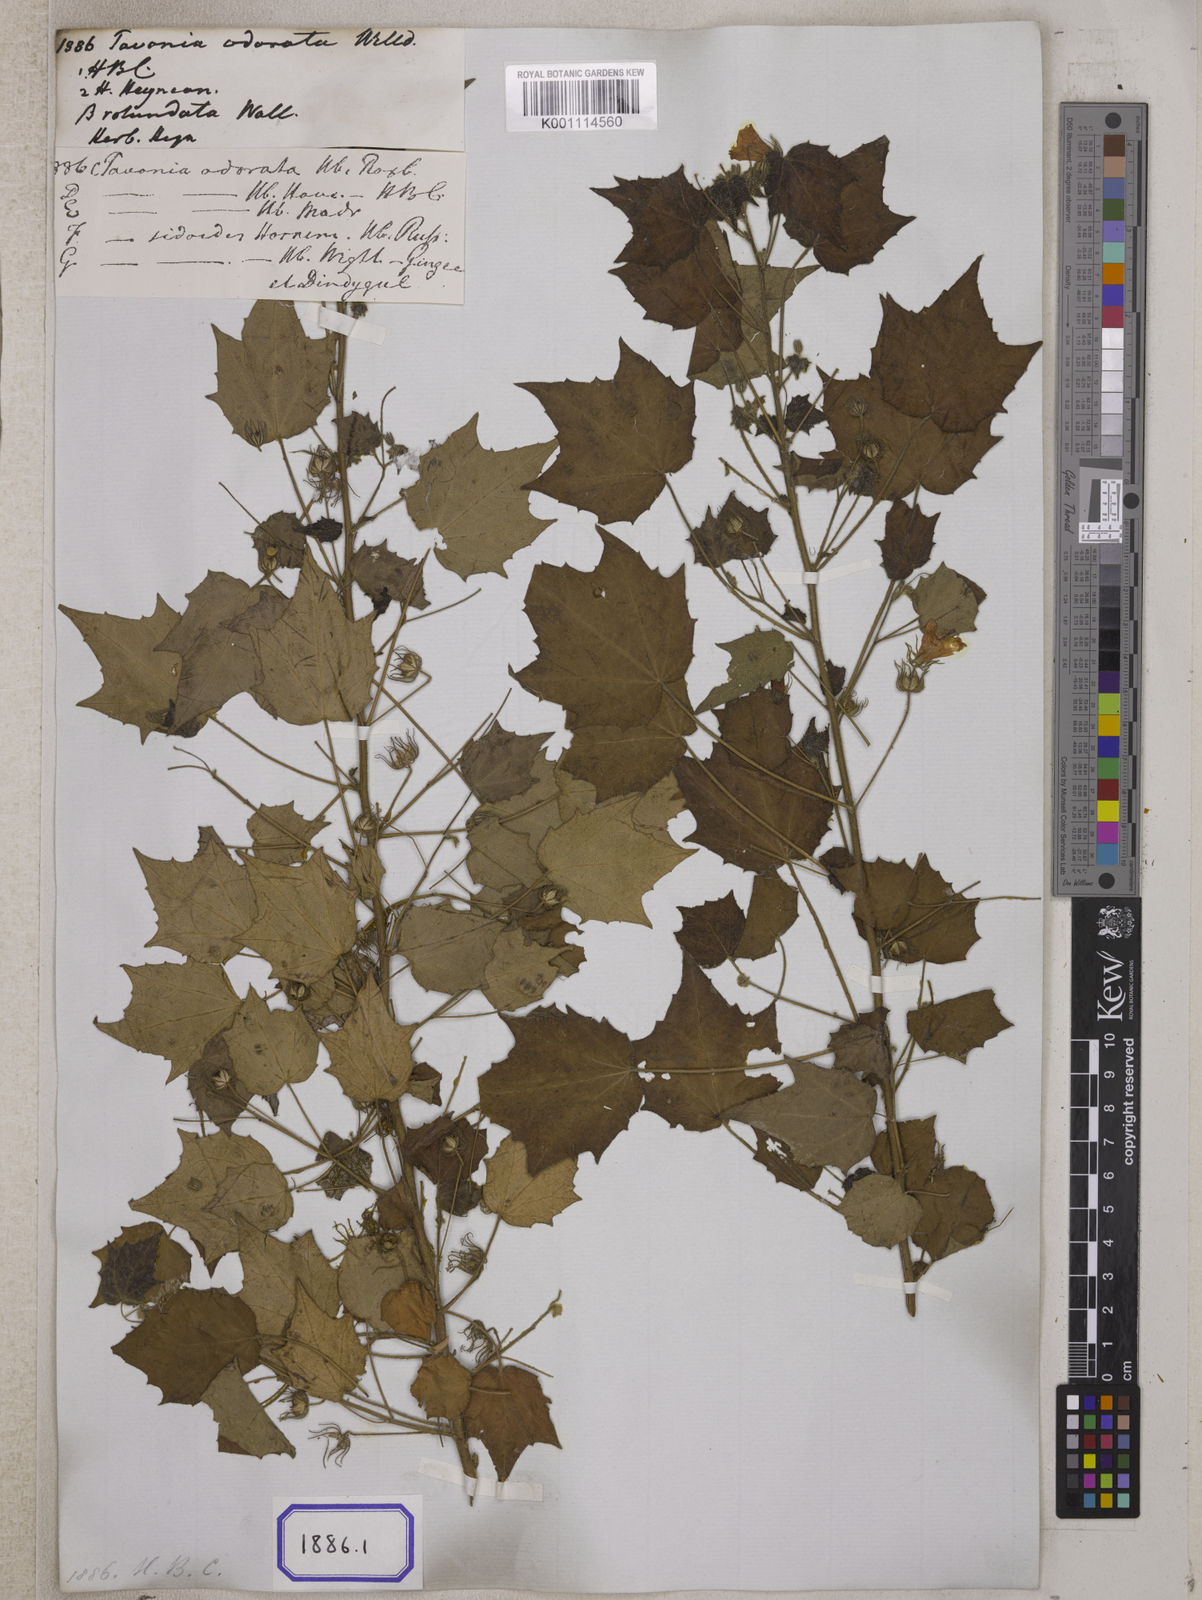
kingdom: Plantae
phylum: Tracheophyta
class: Magnoliopsida
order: Malvales
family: Malvaceae
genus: Pavonia
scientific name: Pavonia zeylonica
